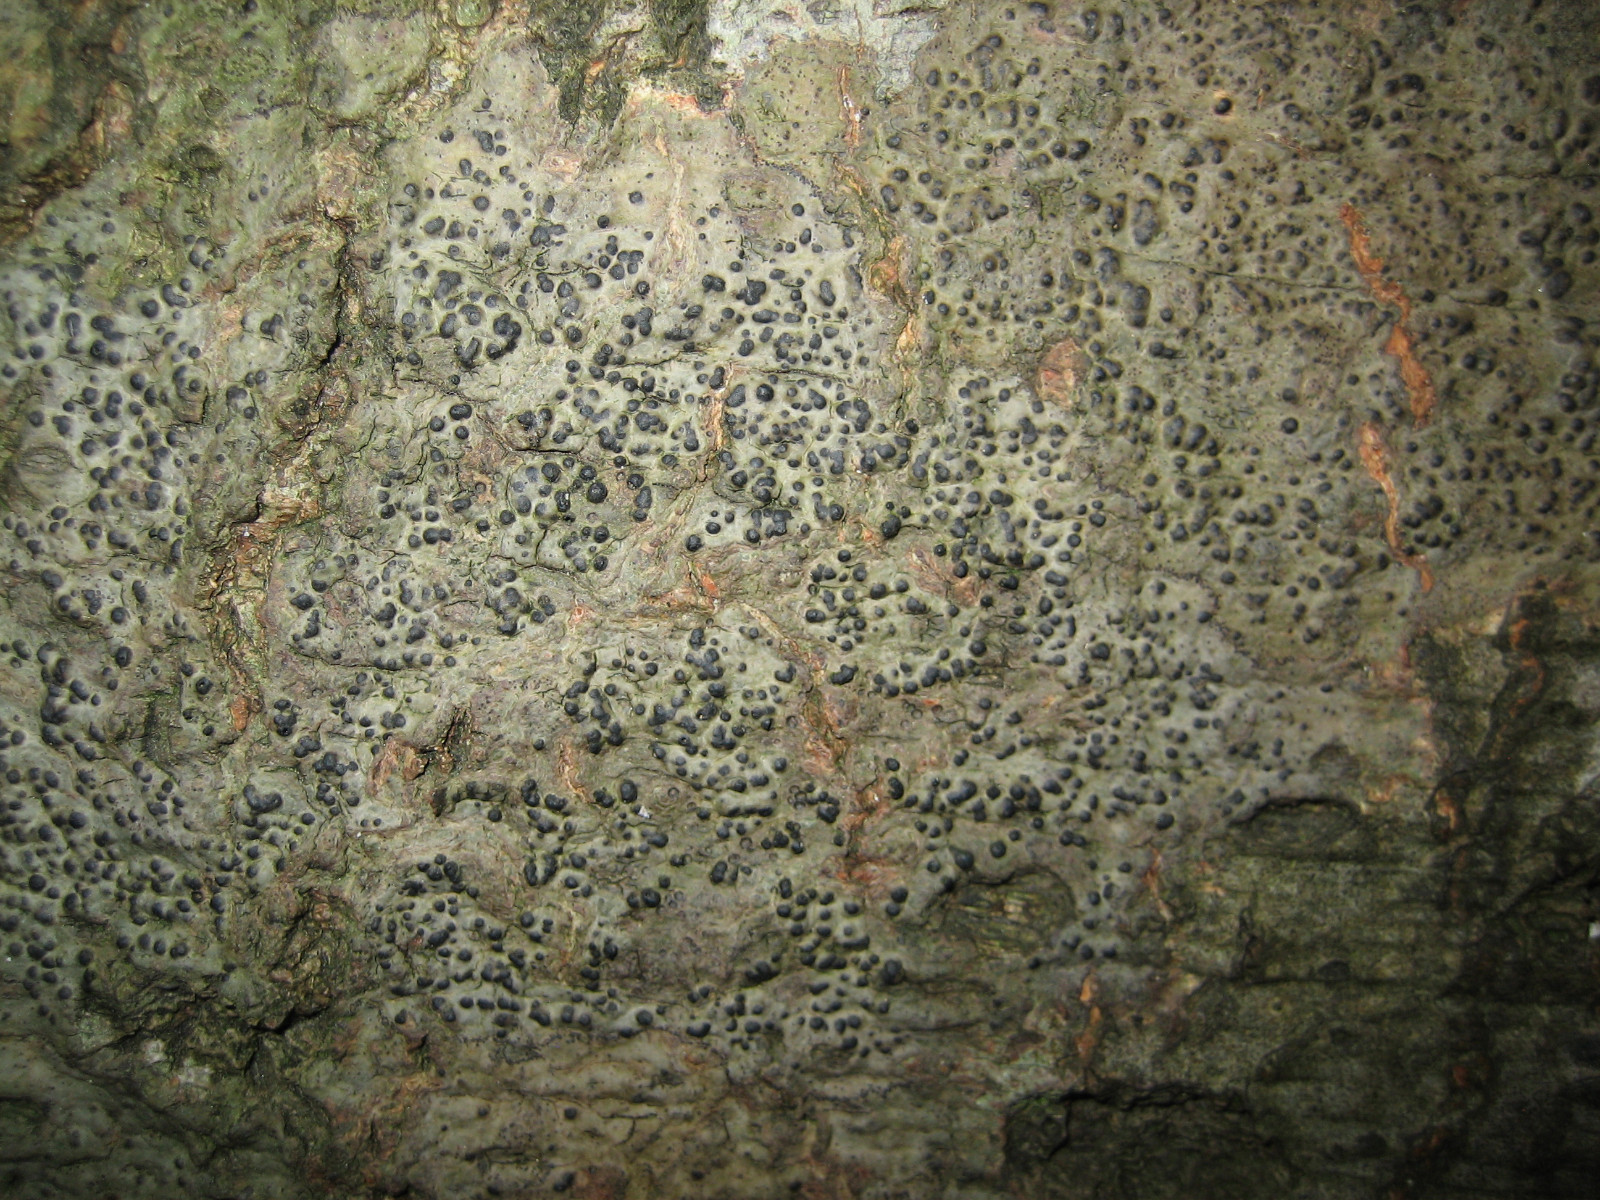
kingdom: Fungi
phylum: Ascomycota
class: Eurotiomycetes
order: Pyrenulales
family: Pyrenulaceae
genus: Pyrenula
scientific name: Pyrenula nitida
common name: glinsende kernelav
